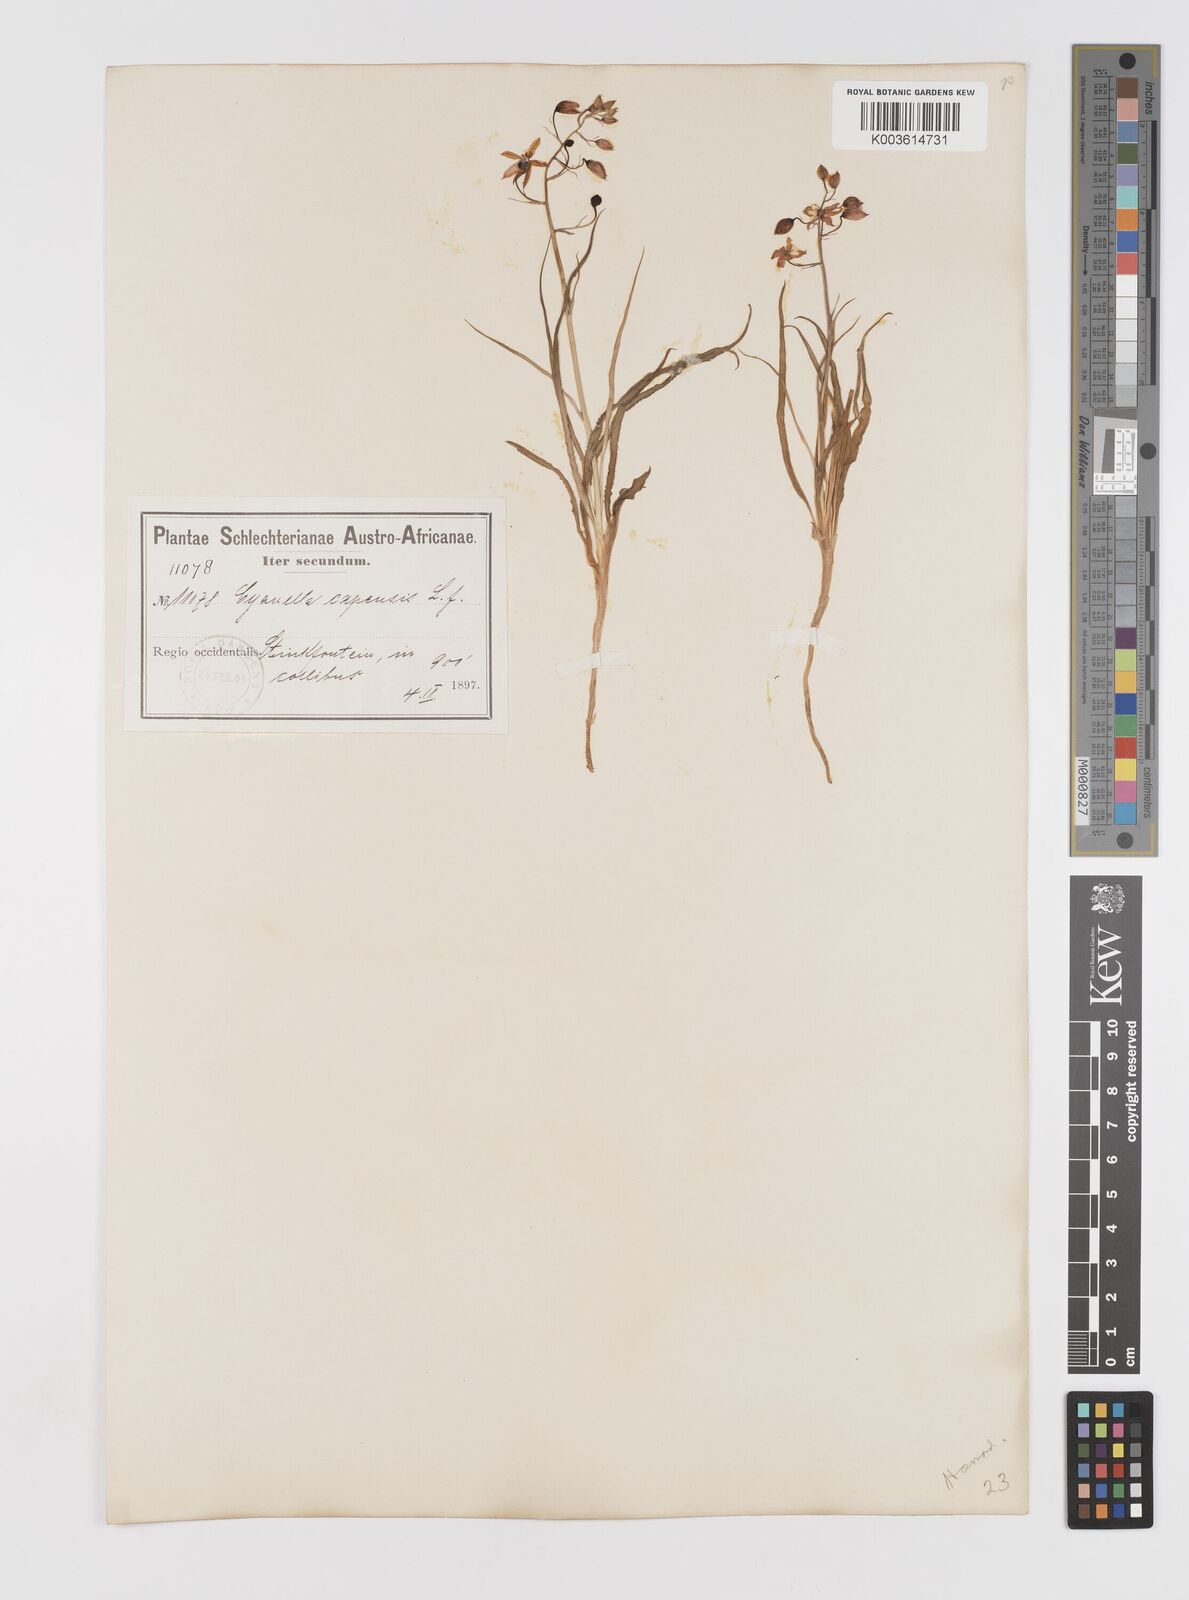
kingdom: Plantae
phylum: Tracheophyta
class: Liliopsida
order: Asparagales
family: Tecophilaeaceae
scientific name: Tecophilaeaceae
